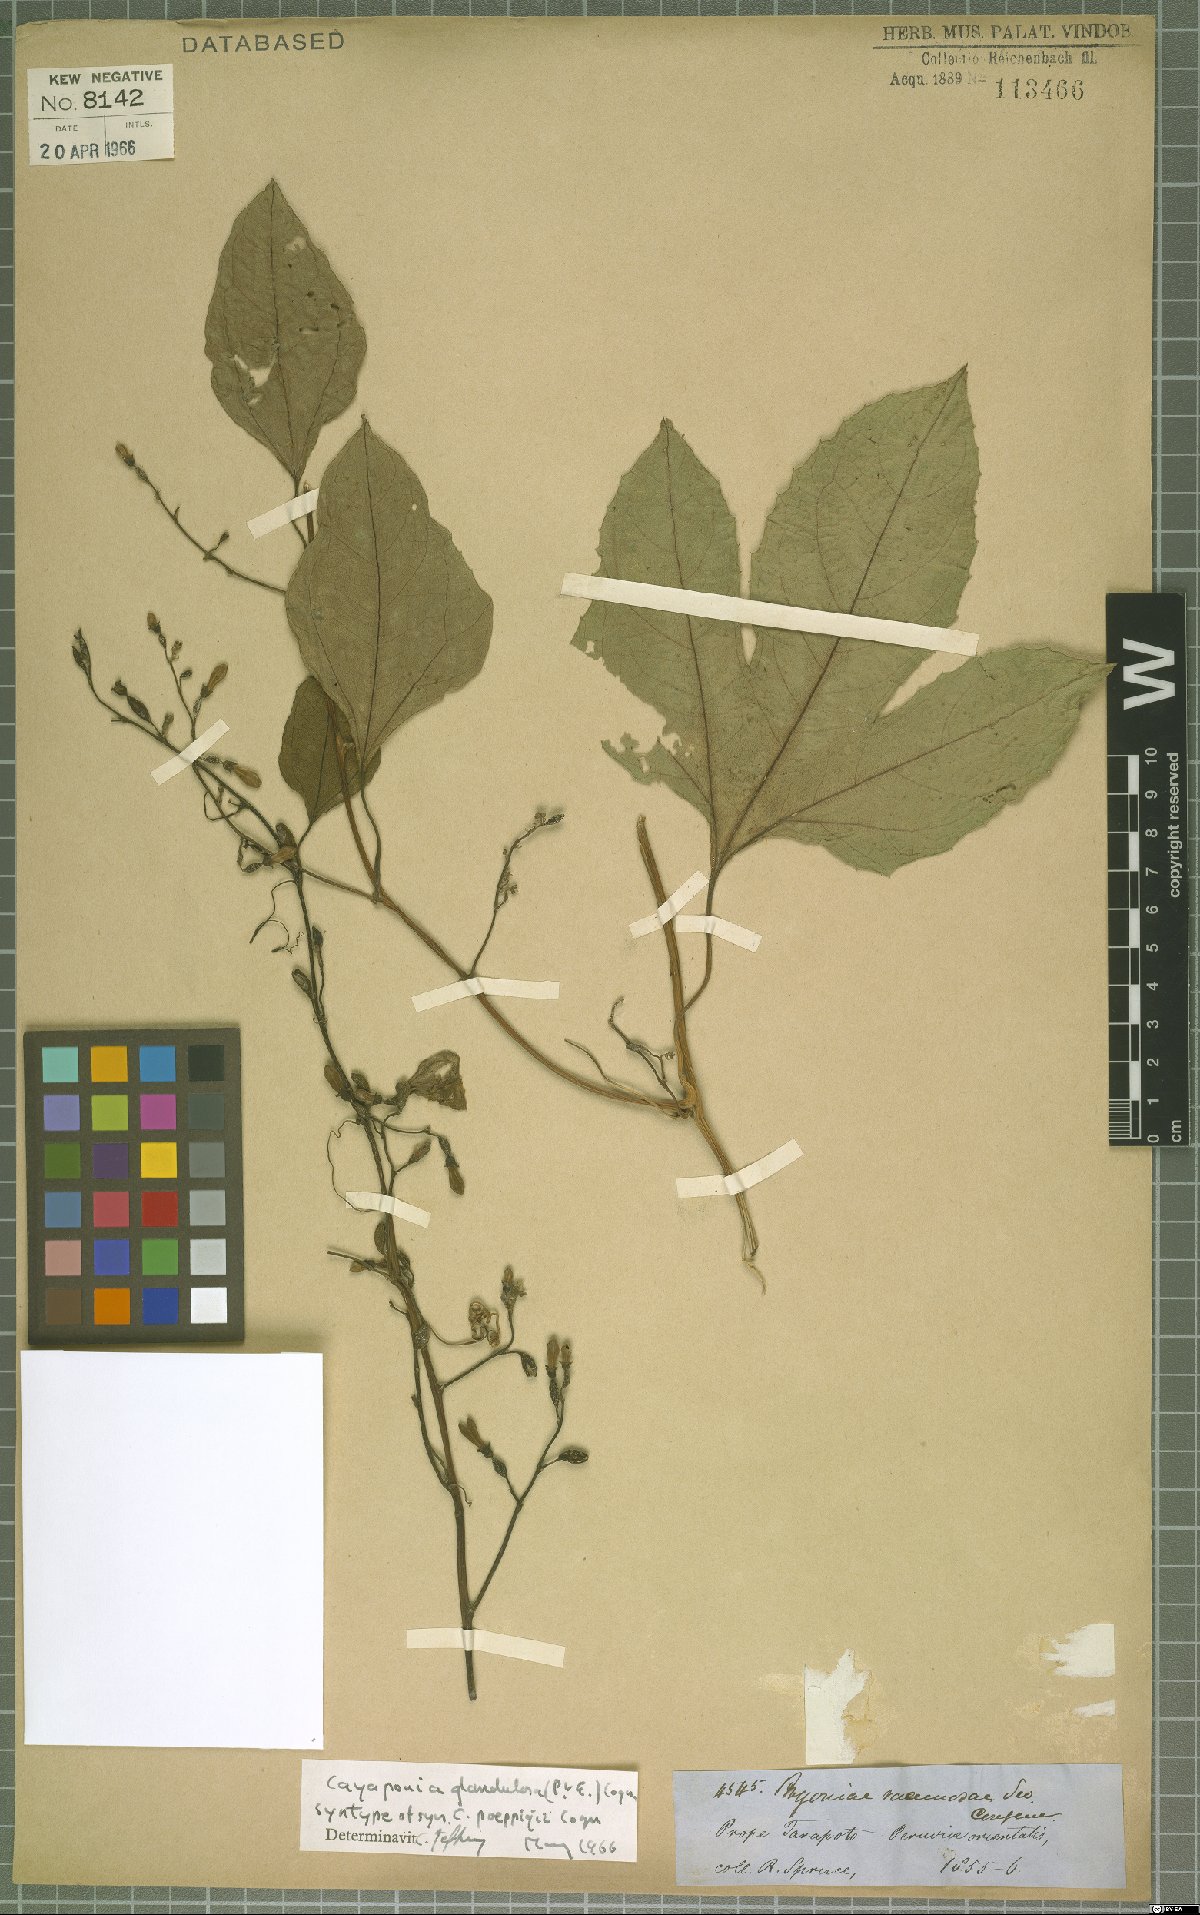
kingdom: Plantae
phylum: Tracheophyta
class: Magnoliopsida
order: Cucurbitales
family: Cucurbitaceae
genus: Cayaponia
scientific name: Cayaponia glandulosa
